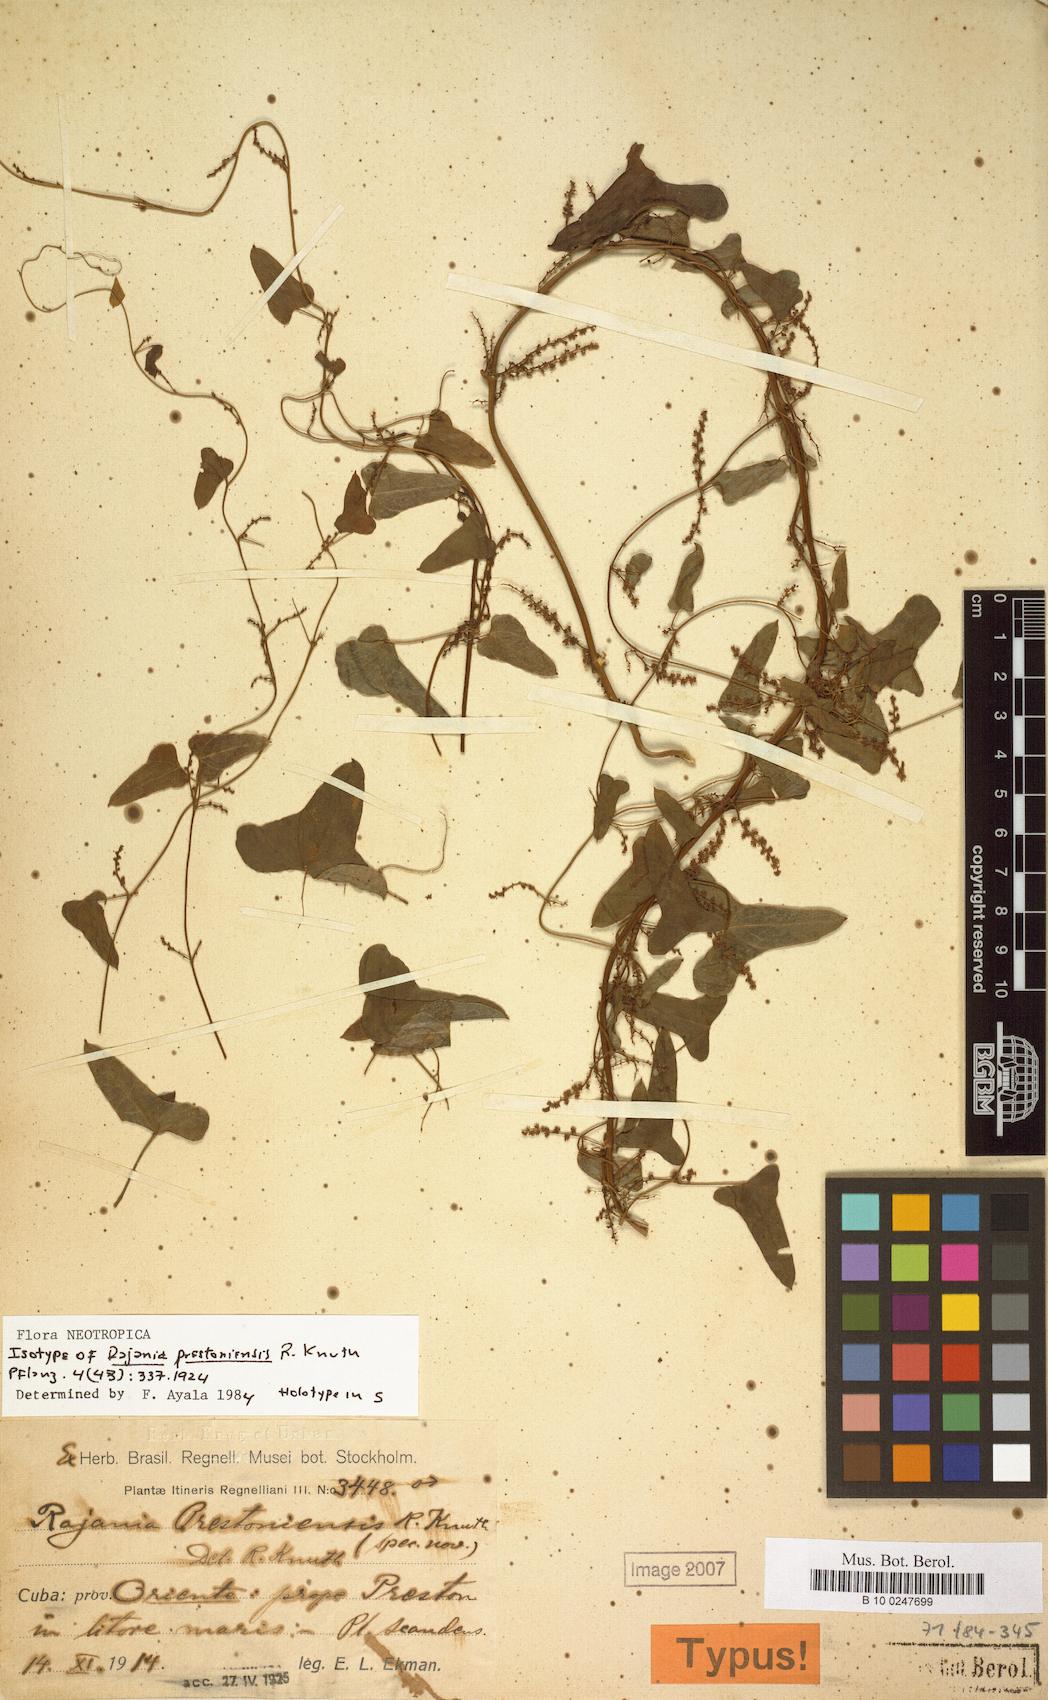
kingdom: Plantae
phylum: Tracheophyta
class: Liliopsida
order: Dioscoreales
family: Dioscoreaceae
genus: Dioscorea
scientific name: Dioscorea microphylla
